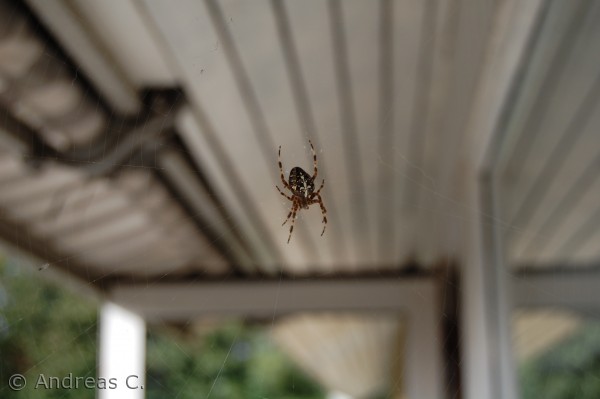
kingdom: Animalia
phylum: Arthropoda
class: Arachnida
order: Araneae
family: Araneidae
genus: Araneus
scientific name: Araneus diadematus
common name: Korsedderkop
